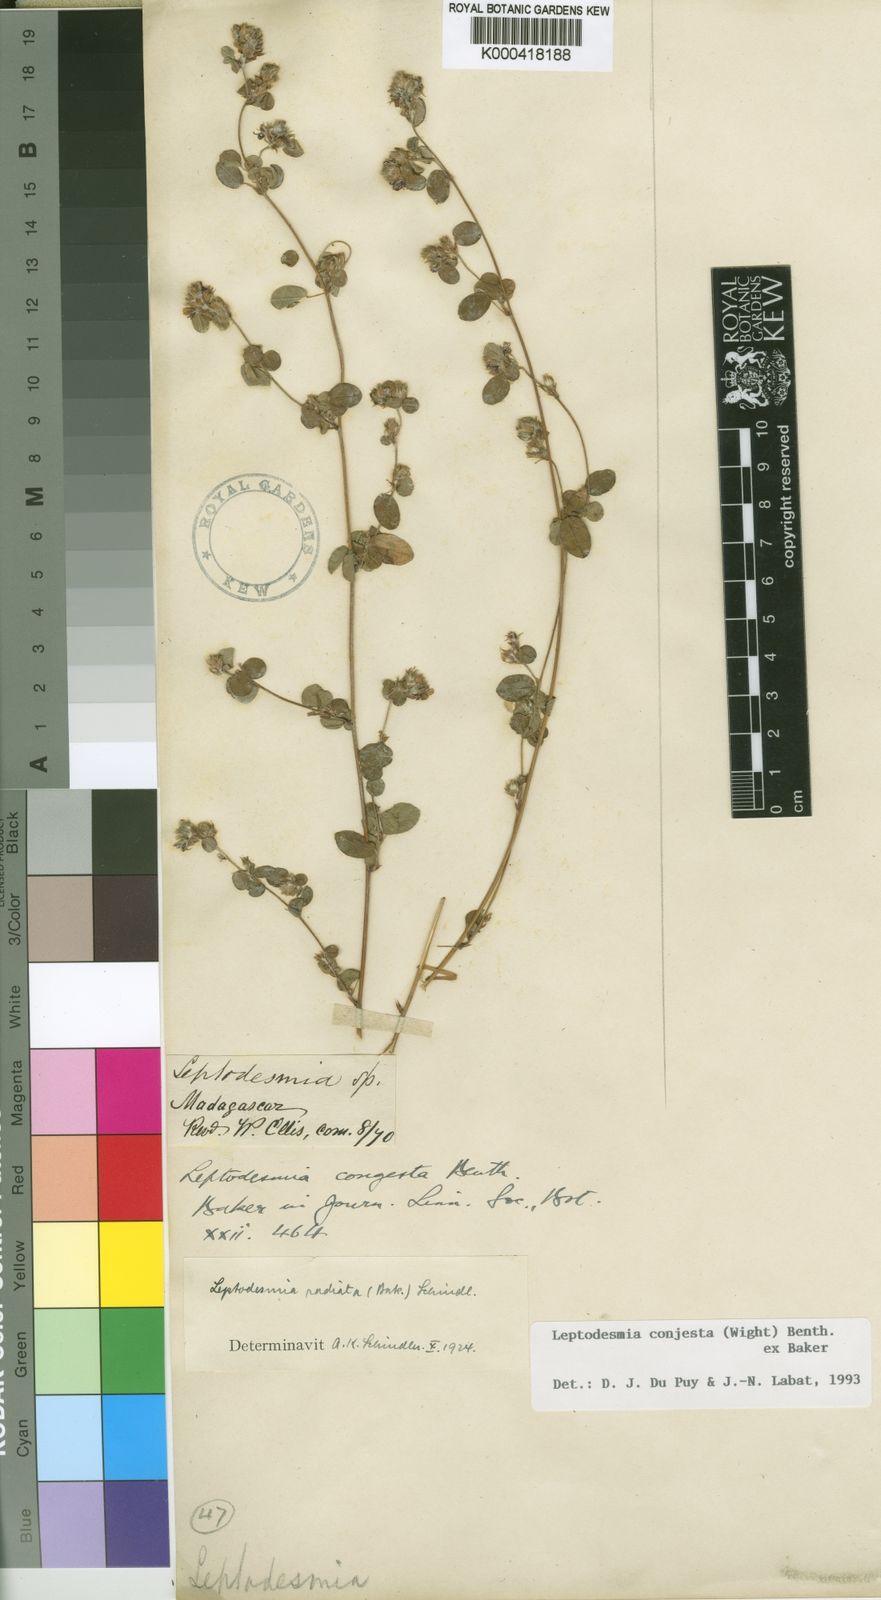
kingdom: Plantae
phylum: Tracheophyta
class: Magnoliopsida
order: Fabales
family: Fabaceae
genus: Leptodesmia
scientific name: Leptodesmia
